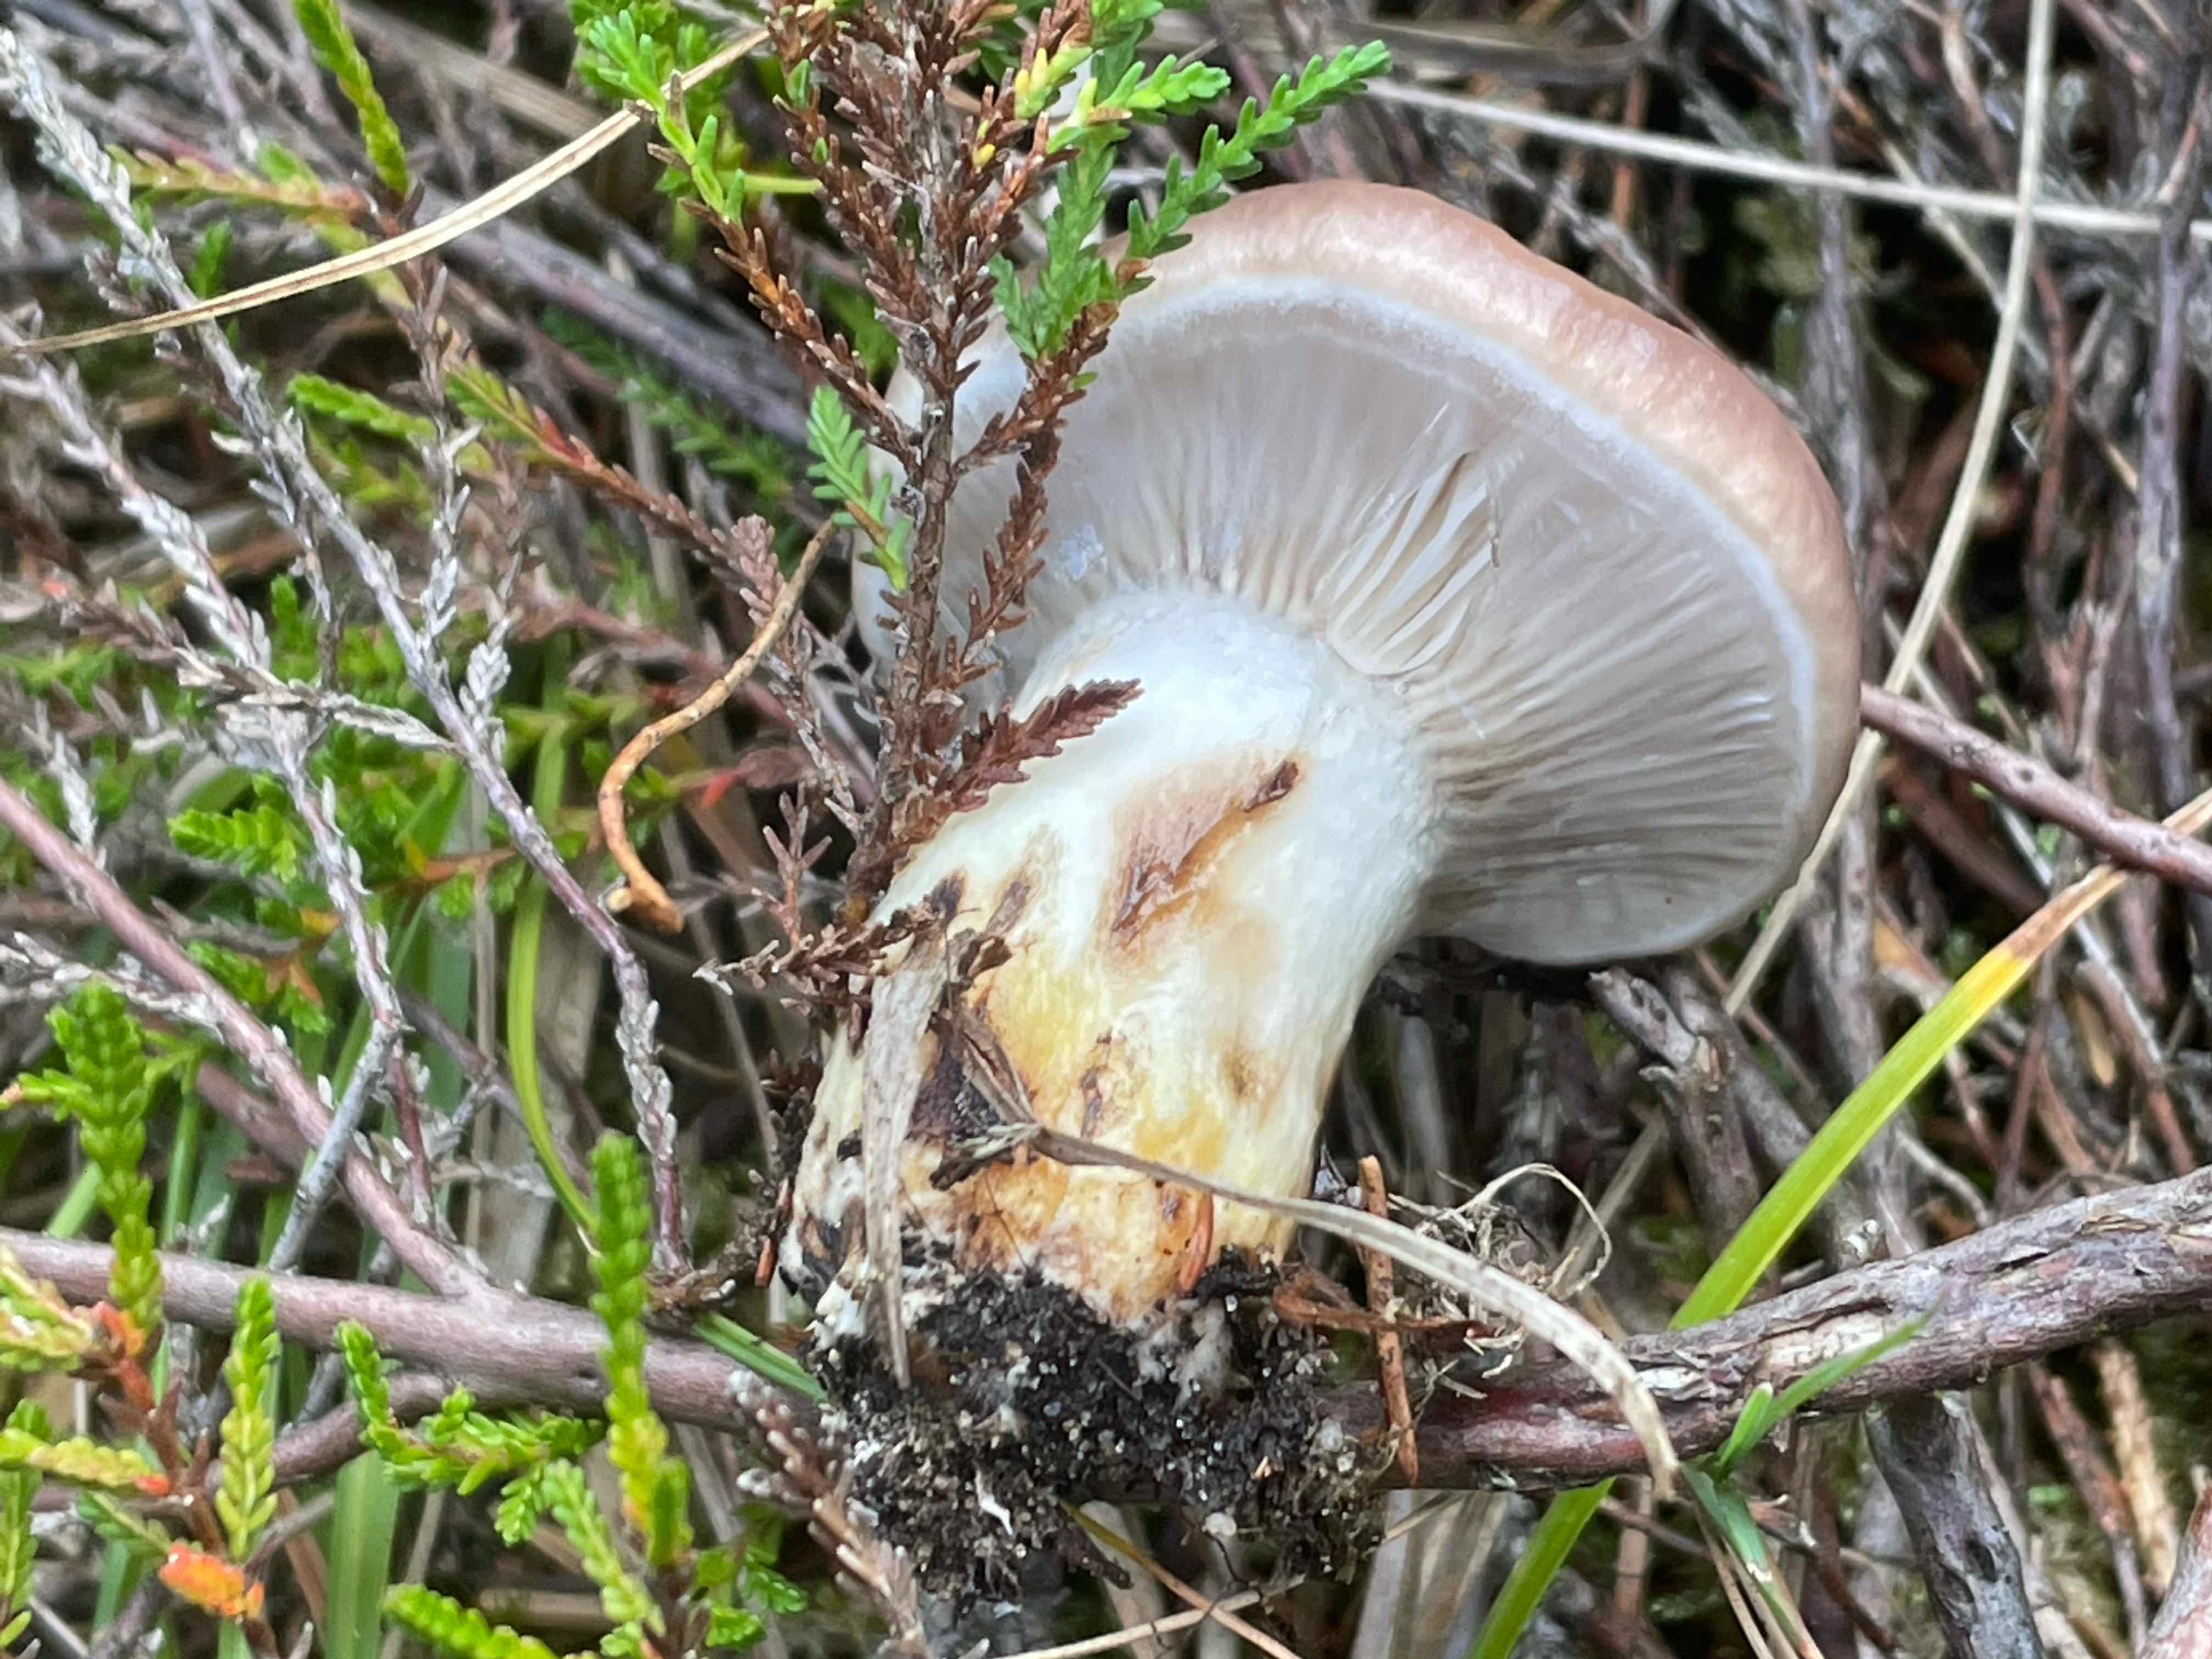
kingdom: Fungi
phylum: Basidiomycota
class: Agaricomycetes
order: Boletales
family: Gomphidiaceae
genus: Gomphidius
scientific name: Gomphidius glutinosus
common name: grå slimslør
